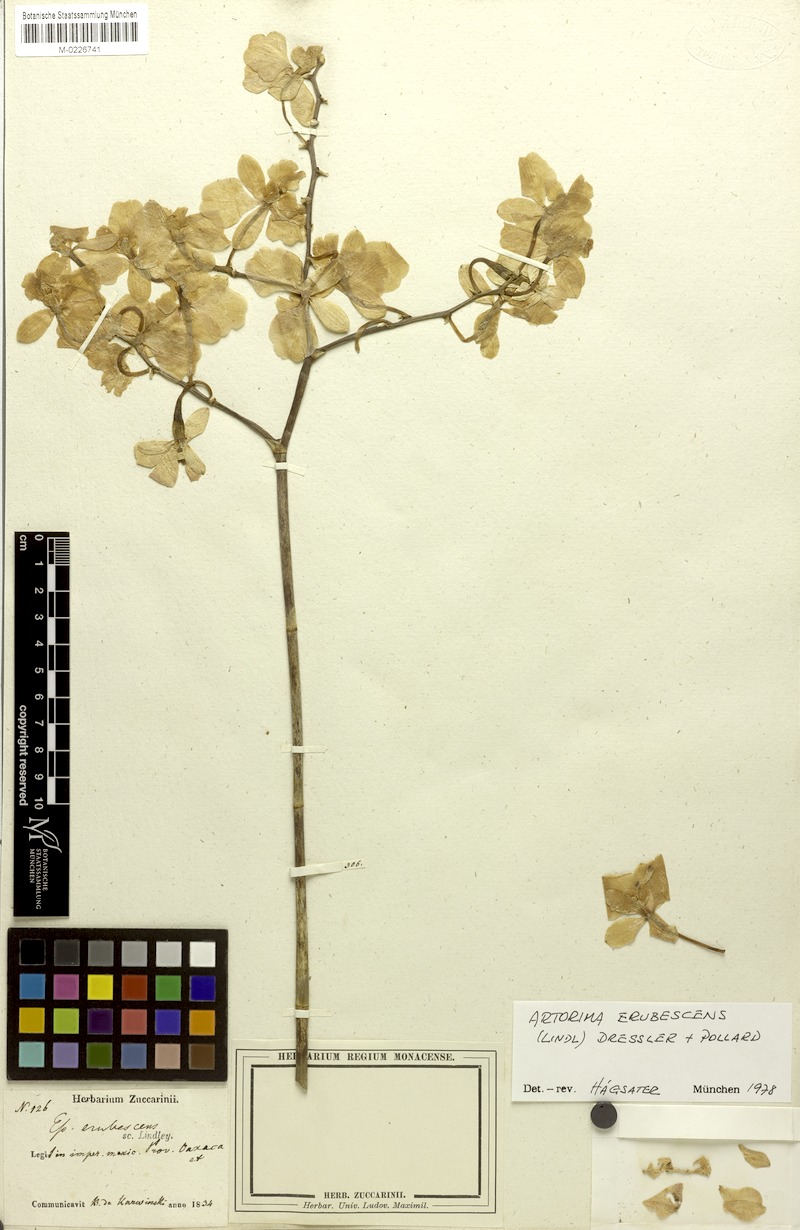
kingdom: Plantae
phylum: Tracheophyta
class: Liliopsida
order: Asparagales
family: Orchidaceae
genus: Artorima
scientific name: Artorima erubescens
